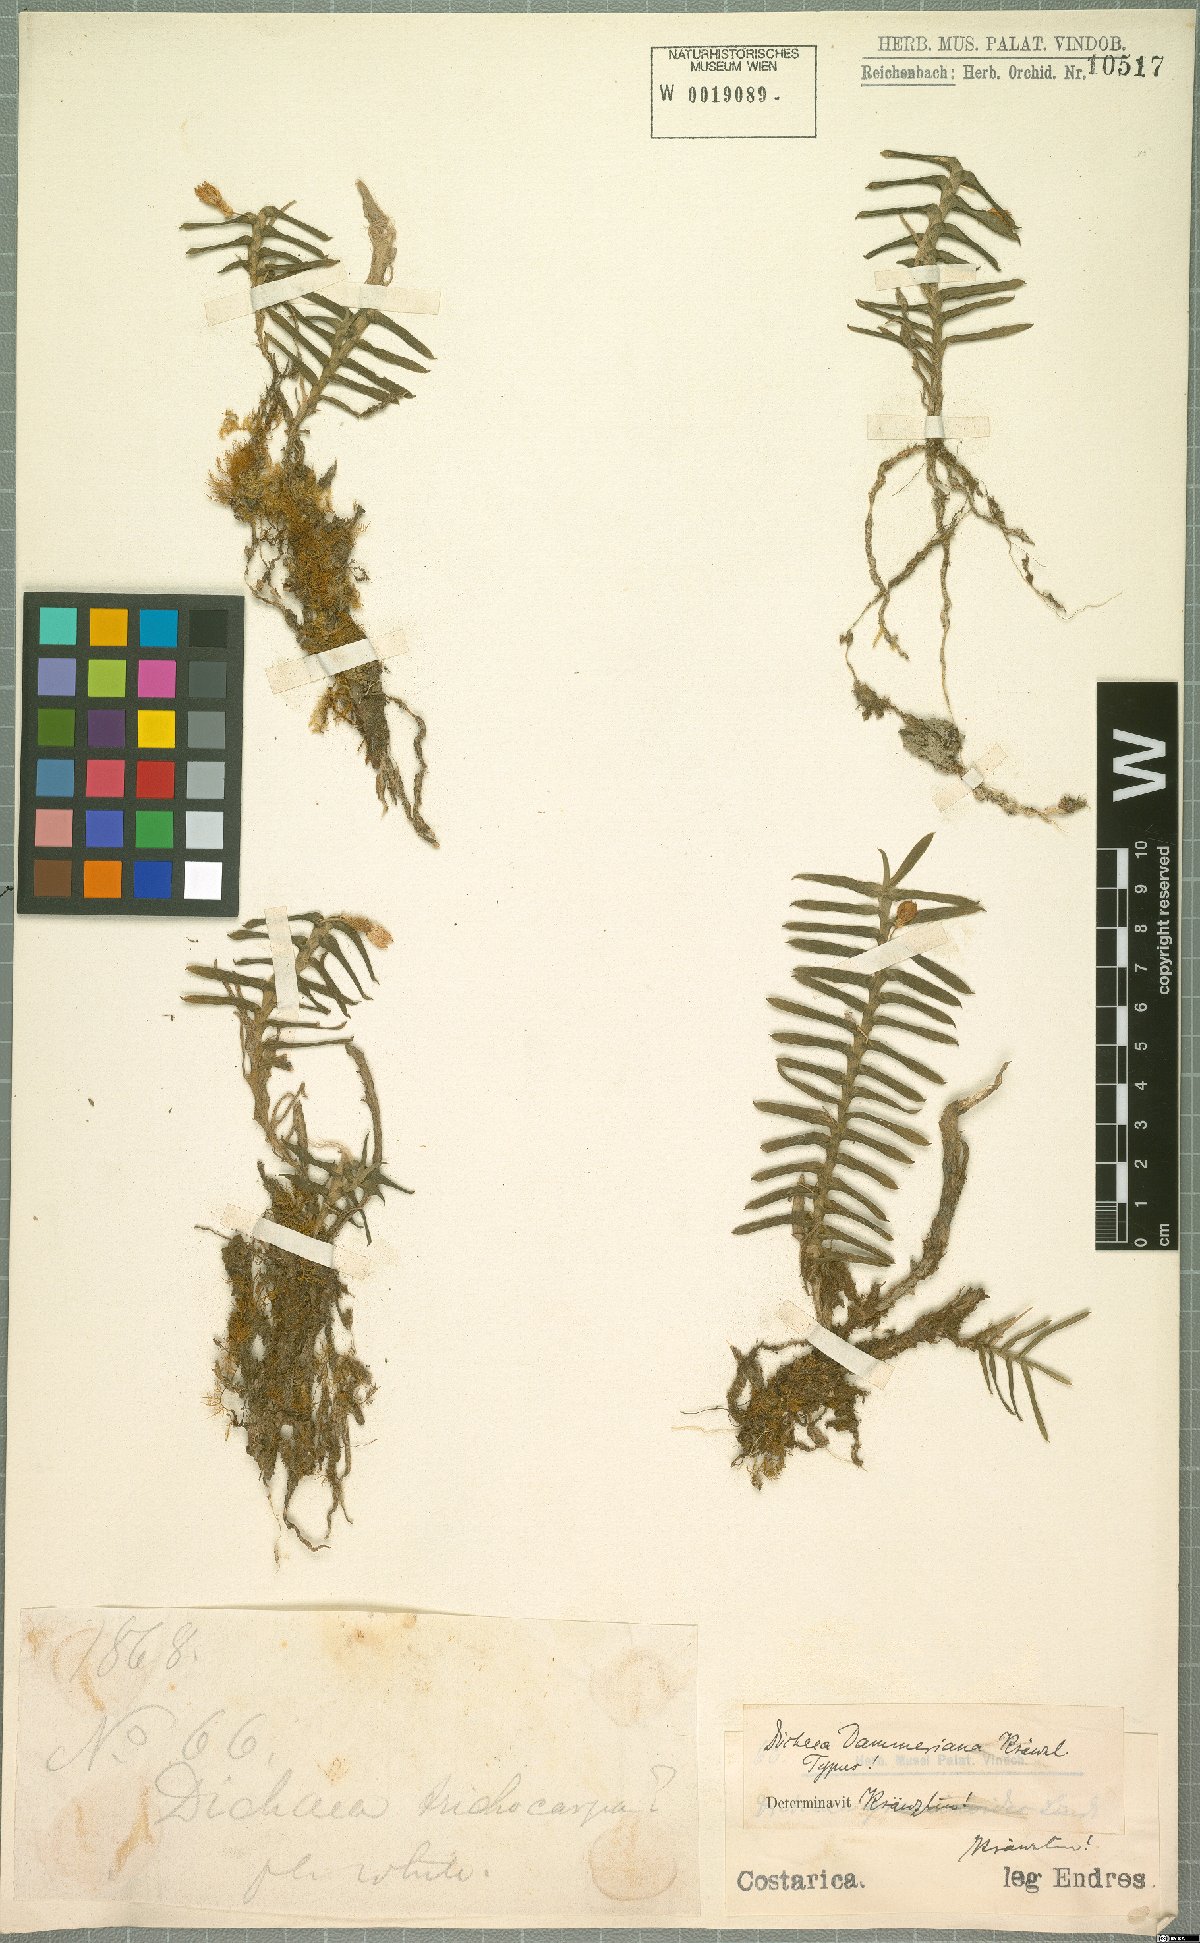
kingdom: Plantae
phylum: Tracheophyta
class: Liliopsida
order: Asparagales
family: Orchidaceae
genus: Dichaea
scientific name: Dichaea dammeriana
